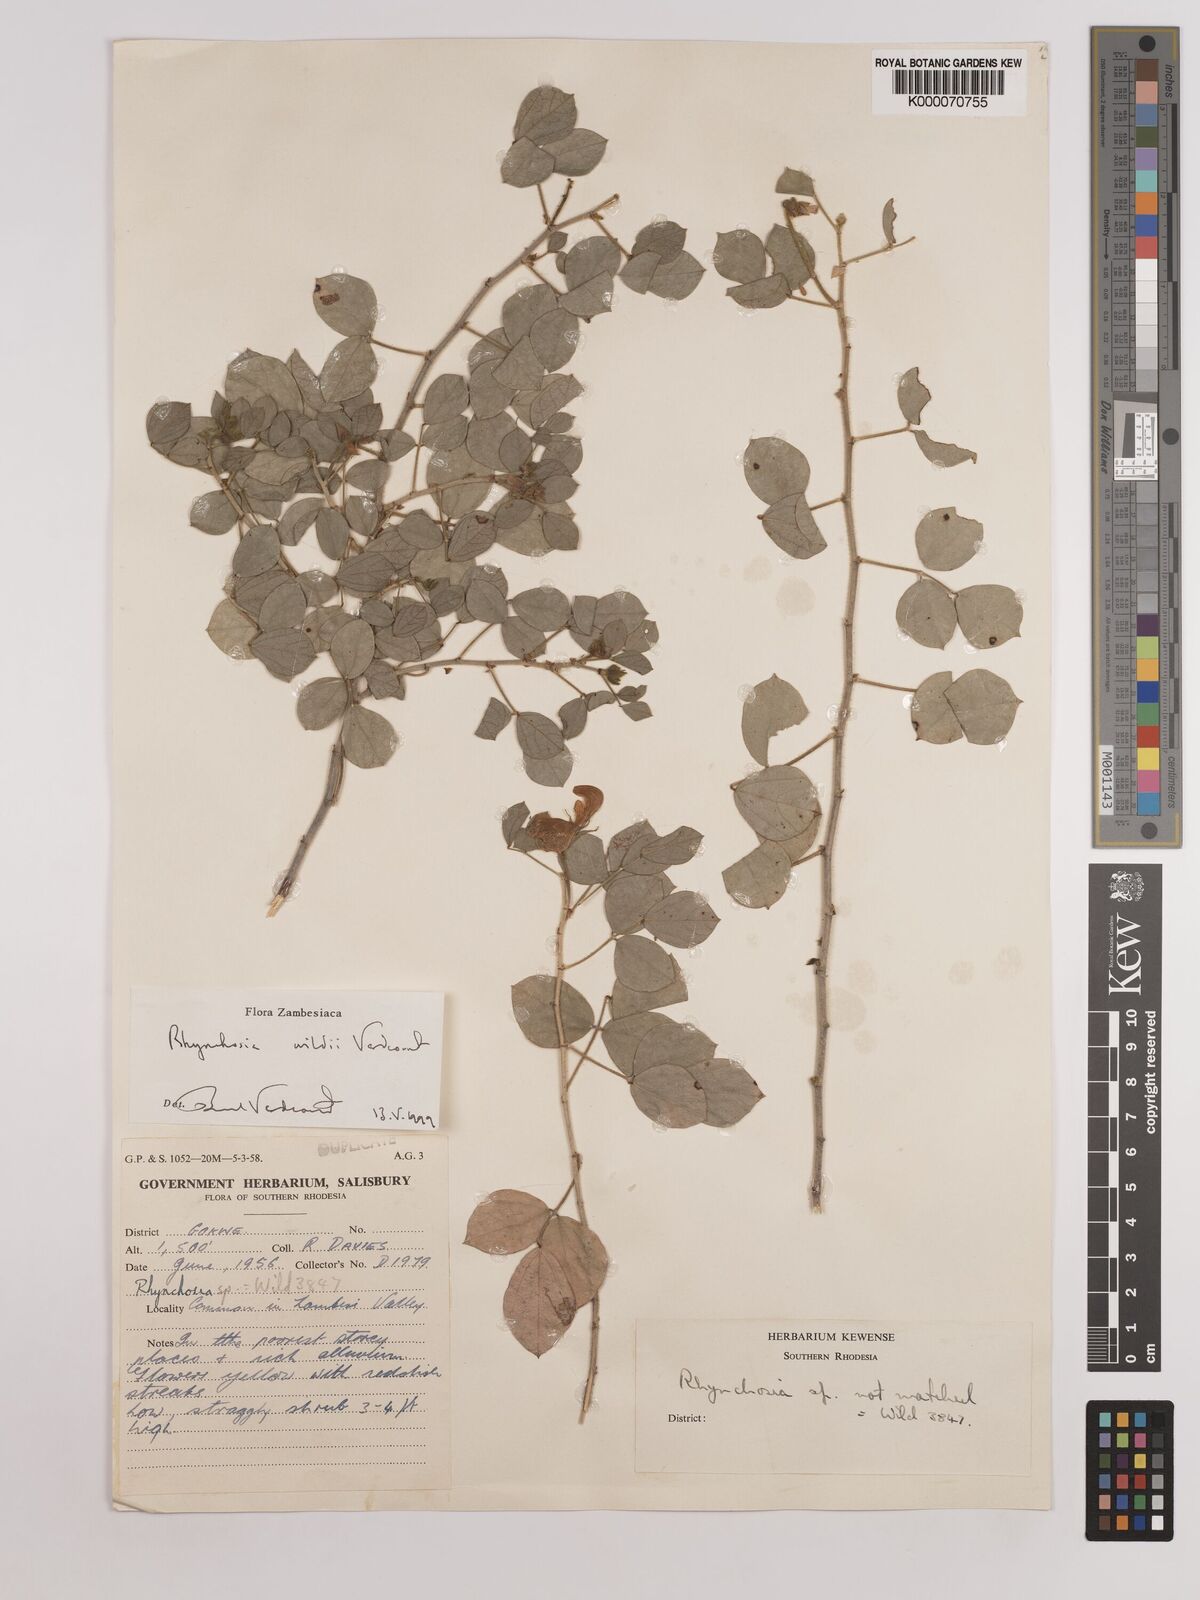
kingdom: Plantae
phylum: Tracheophyta
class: Magnoliopsida
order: Fabales
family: Fabaceae
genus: Rhynchosia
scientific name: Rhynchosia wildii
